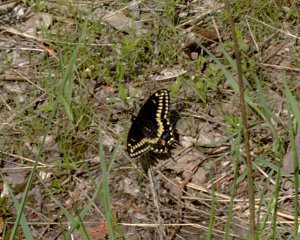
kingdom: Animalia
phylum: Arthropoda
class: Insecta
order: Lepidoptera
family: Papilionidae
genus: Papilio
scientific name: Papilio polyxenes
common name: Black Swallowtail
